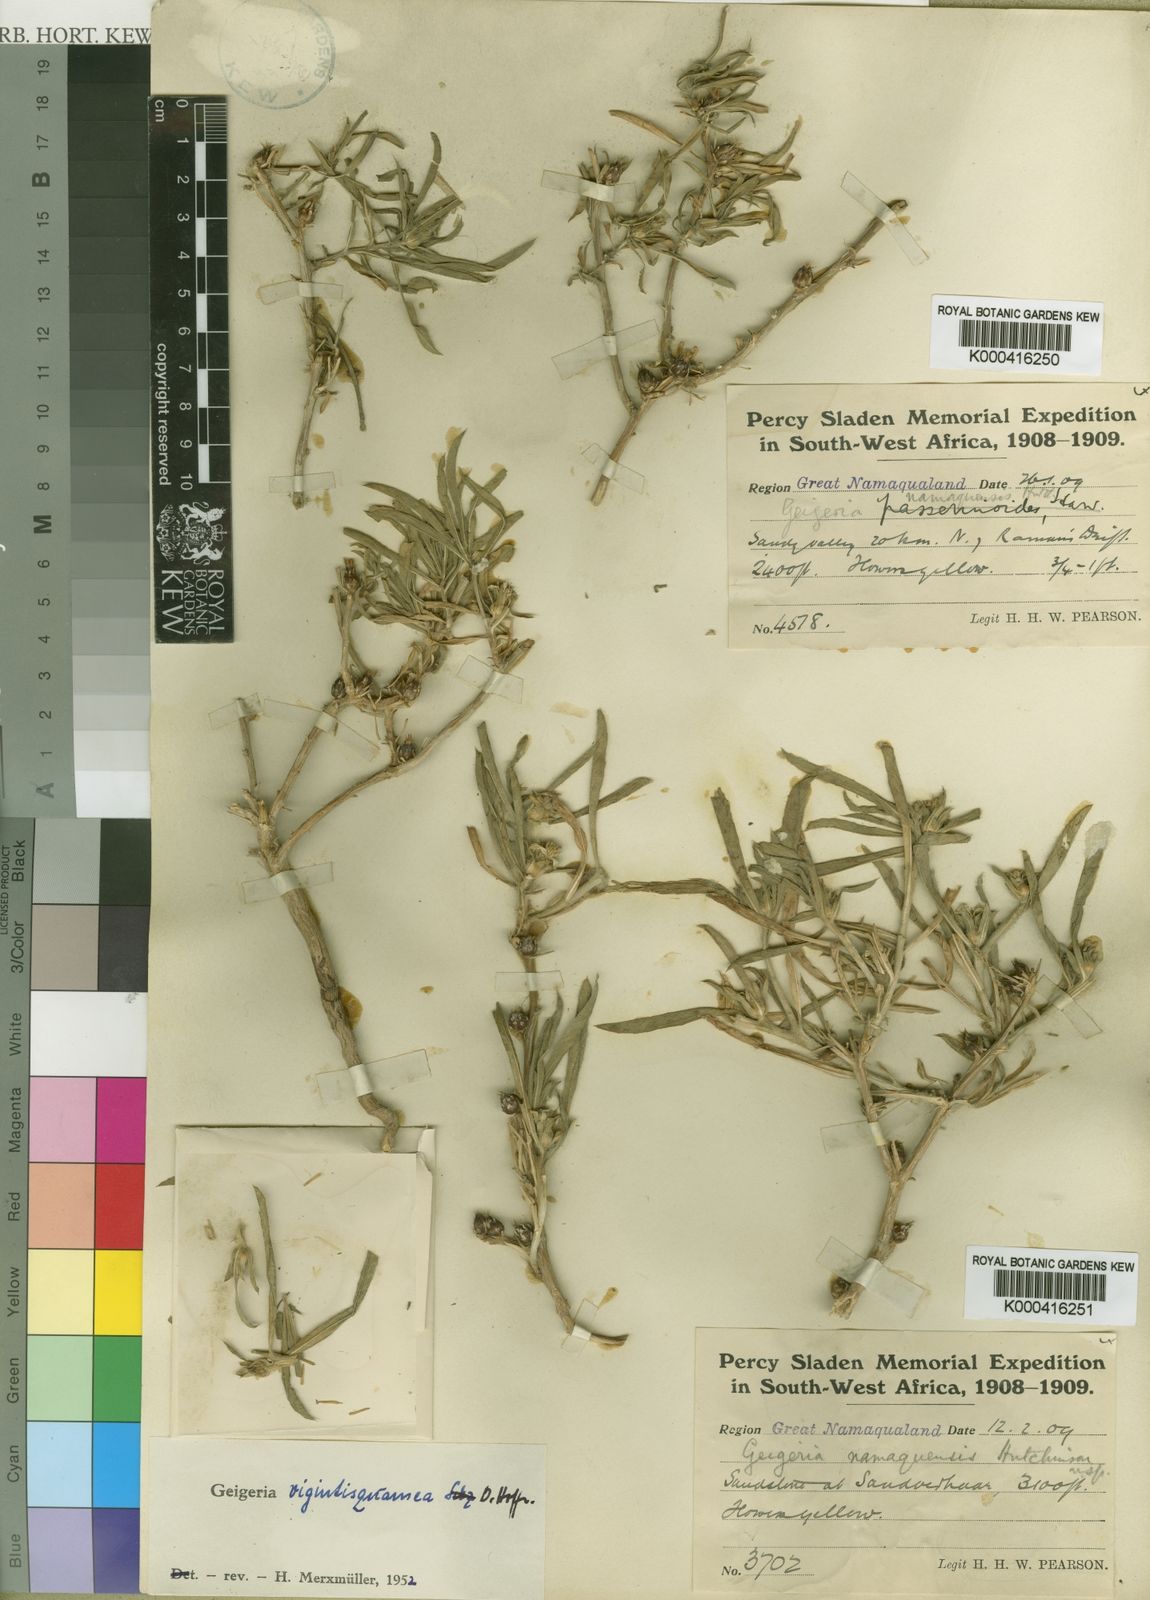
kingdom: Plantae
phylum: Tracheophyta
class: Magnoliopsida
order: Asterales
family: Asteraceae
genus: Geigeria
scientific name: Geigeria vigintisquamea
